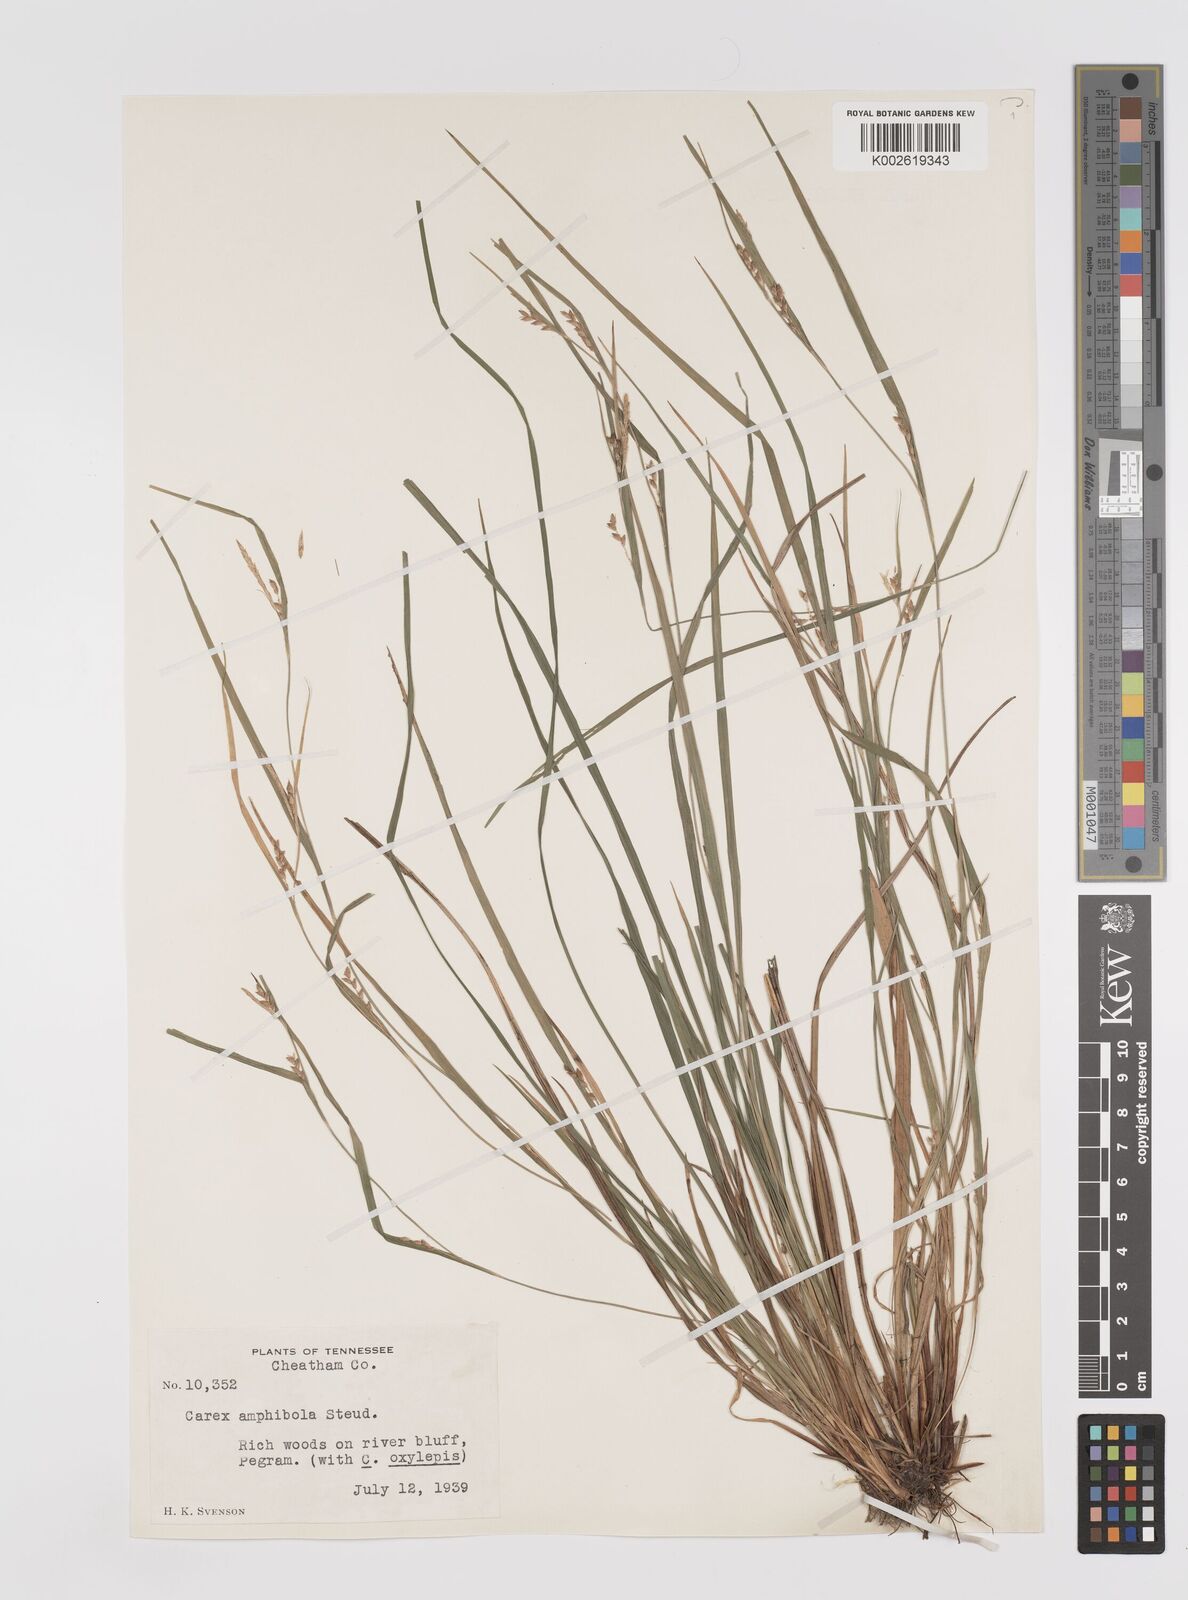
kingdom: Plantae
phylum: Tracheophyta
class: Liliopsida
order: Poales
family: Cyperaceae
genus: Carex
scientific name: Carex amphibola
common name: Amphibious sedge
